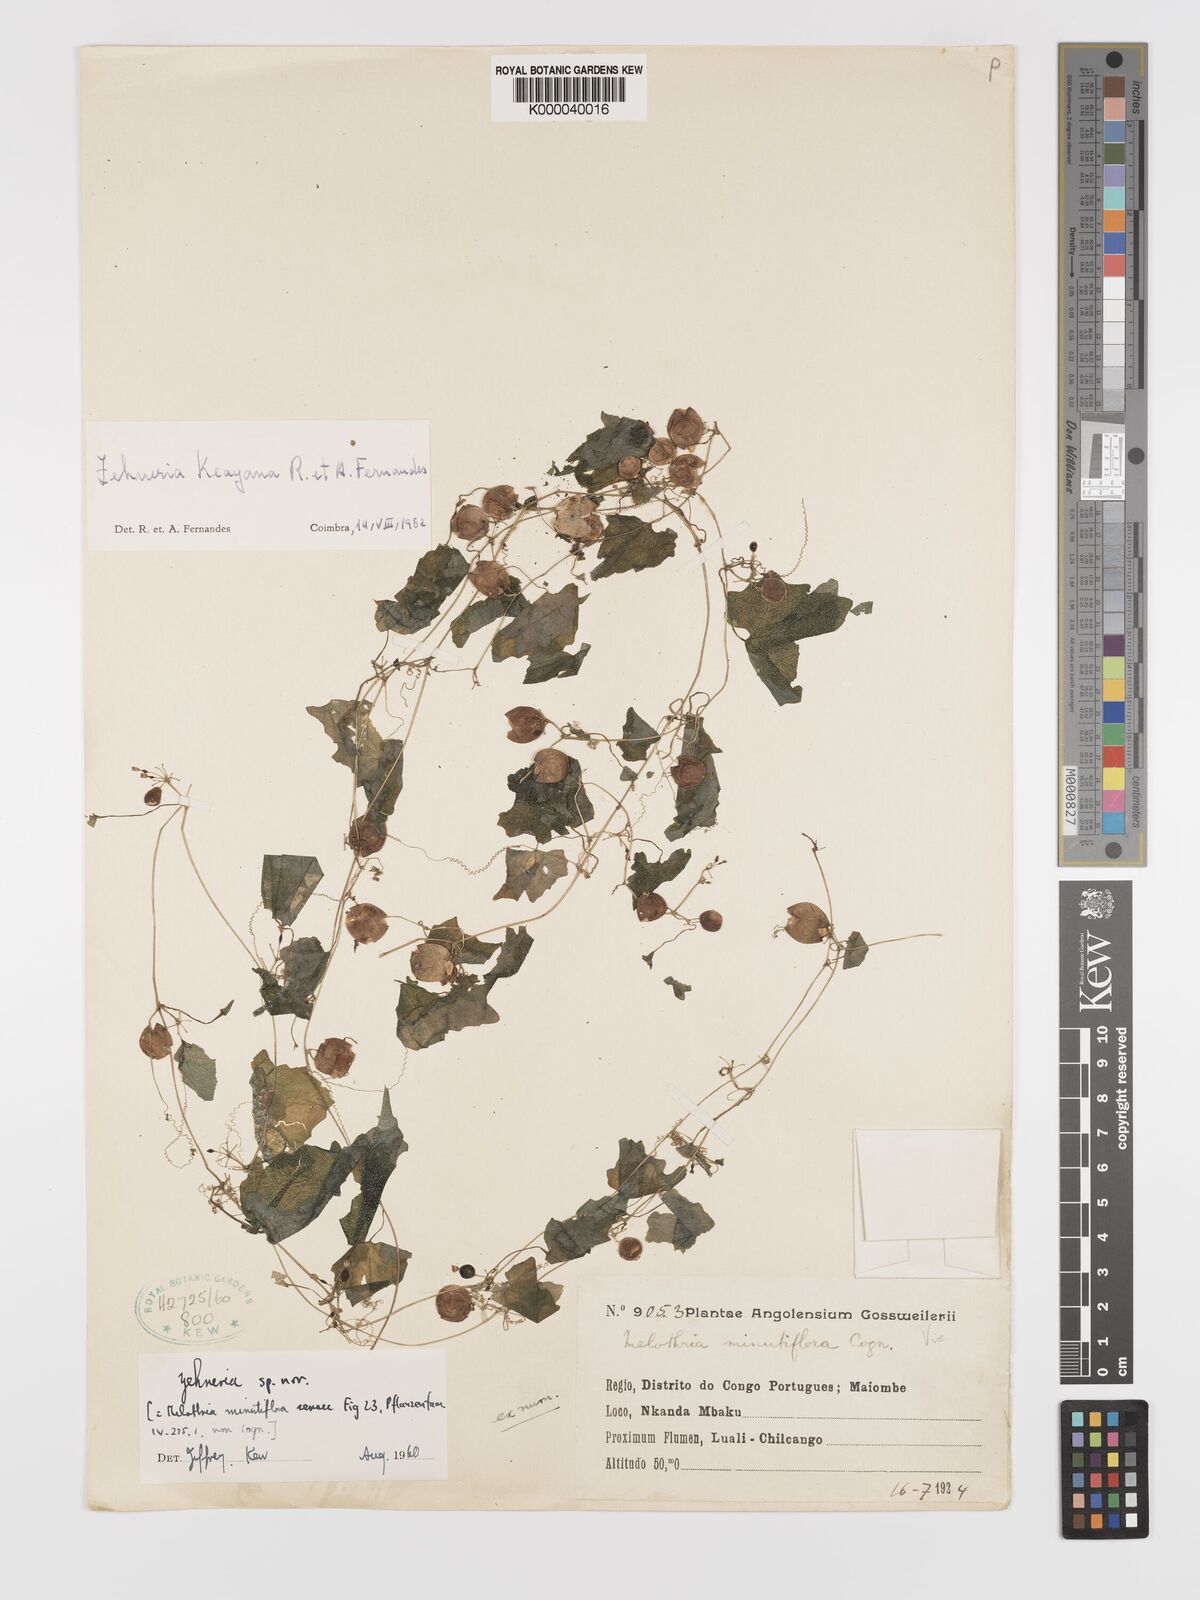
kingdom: Plantae
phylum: Tracheophyta
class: Magnoliopsida
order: Cucurbitales
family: Cucurbitaceae
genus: Zehneria
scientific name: Zehneria keayana
